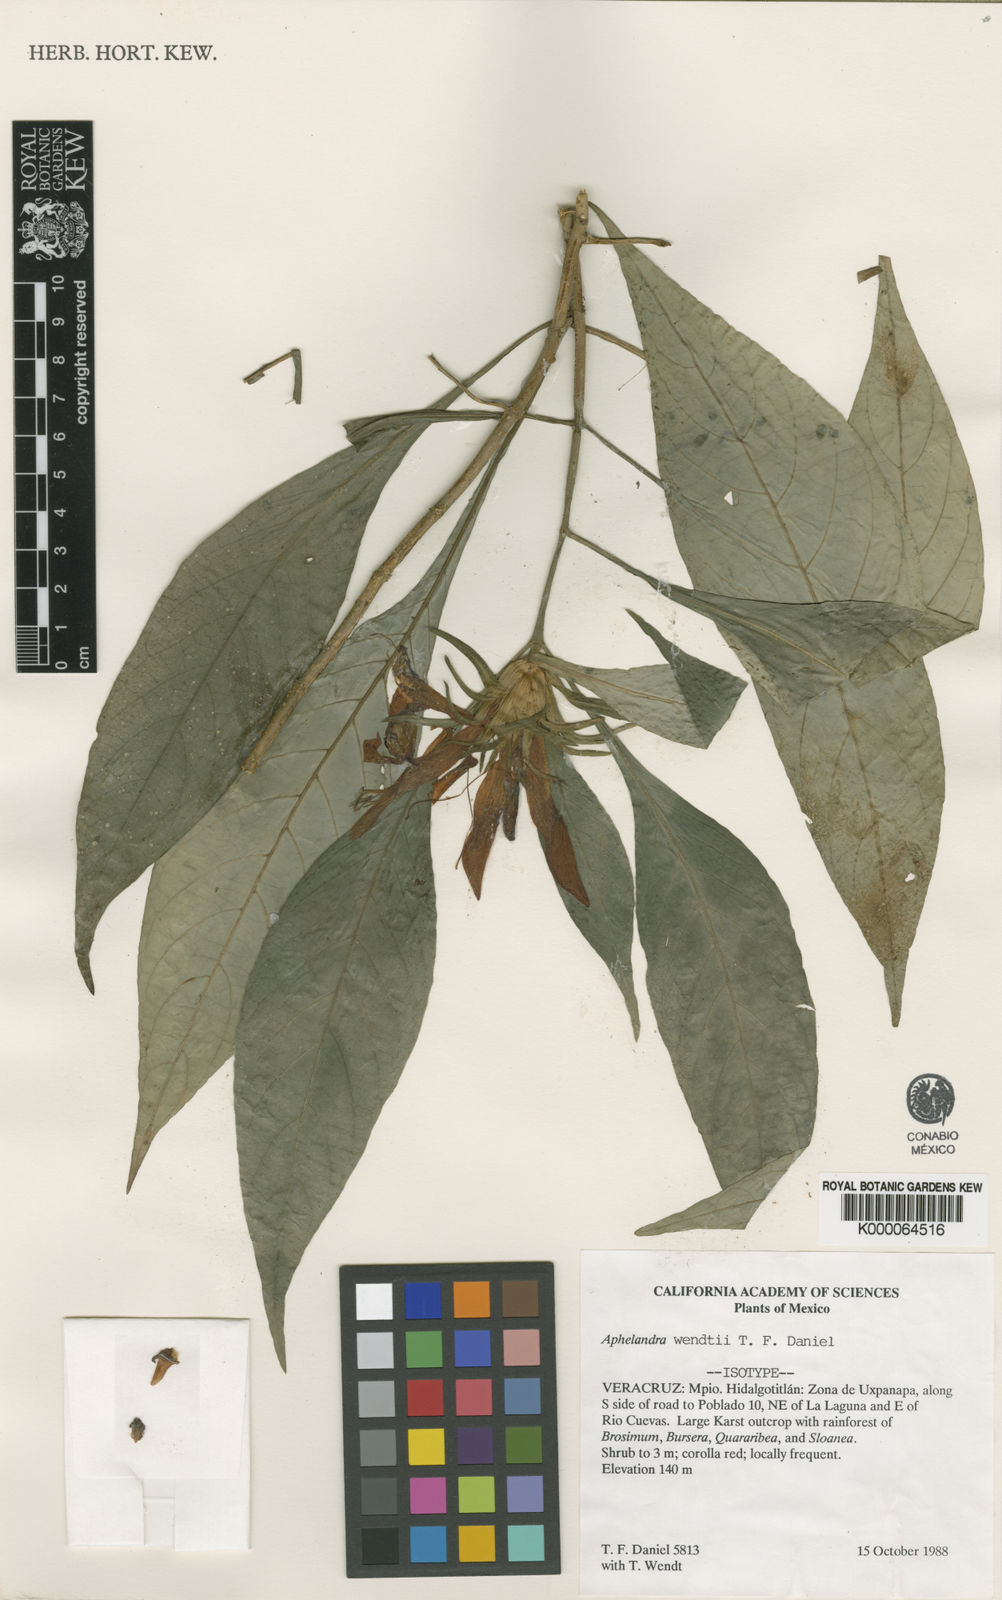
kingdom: Plantae
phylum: Tracheophyta
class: Magnoliopsida
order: Lamiales
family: Acanthaceae
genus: Aphelandra
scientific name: Aphelandra wendtii
